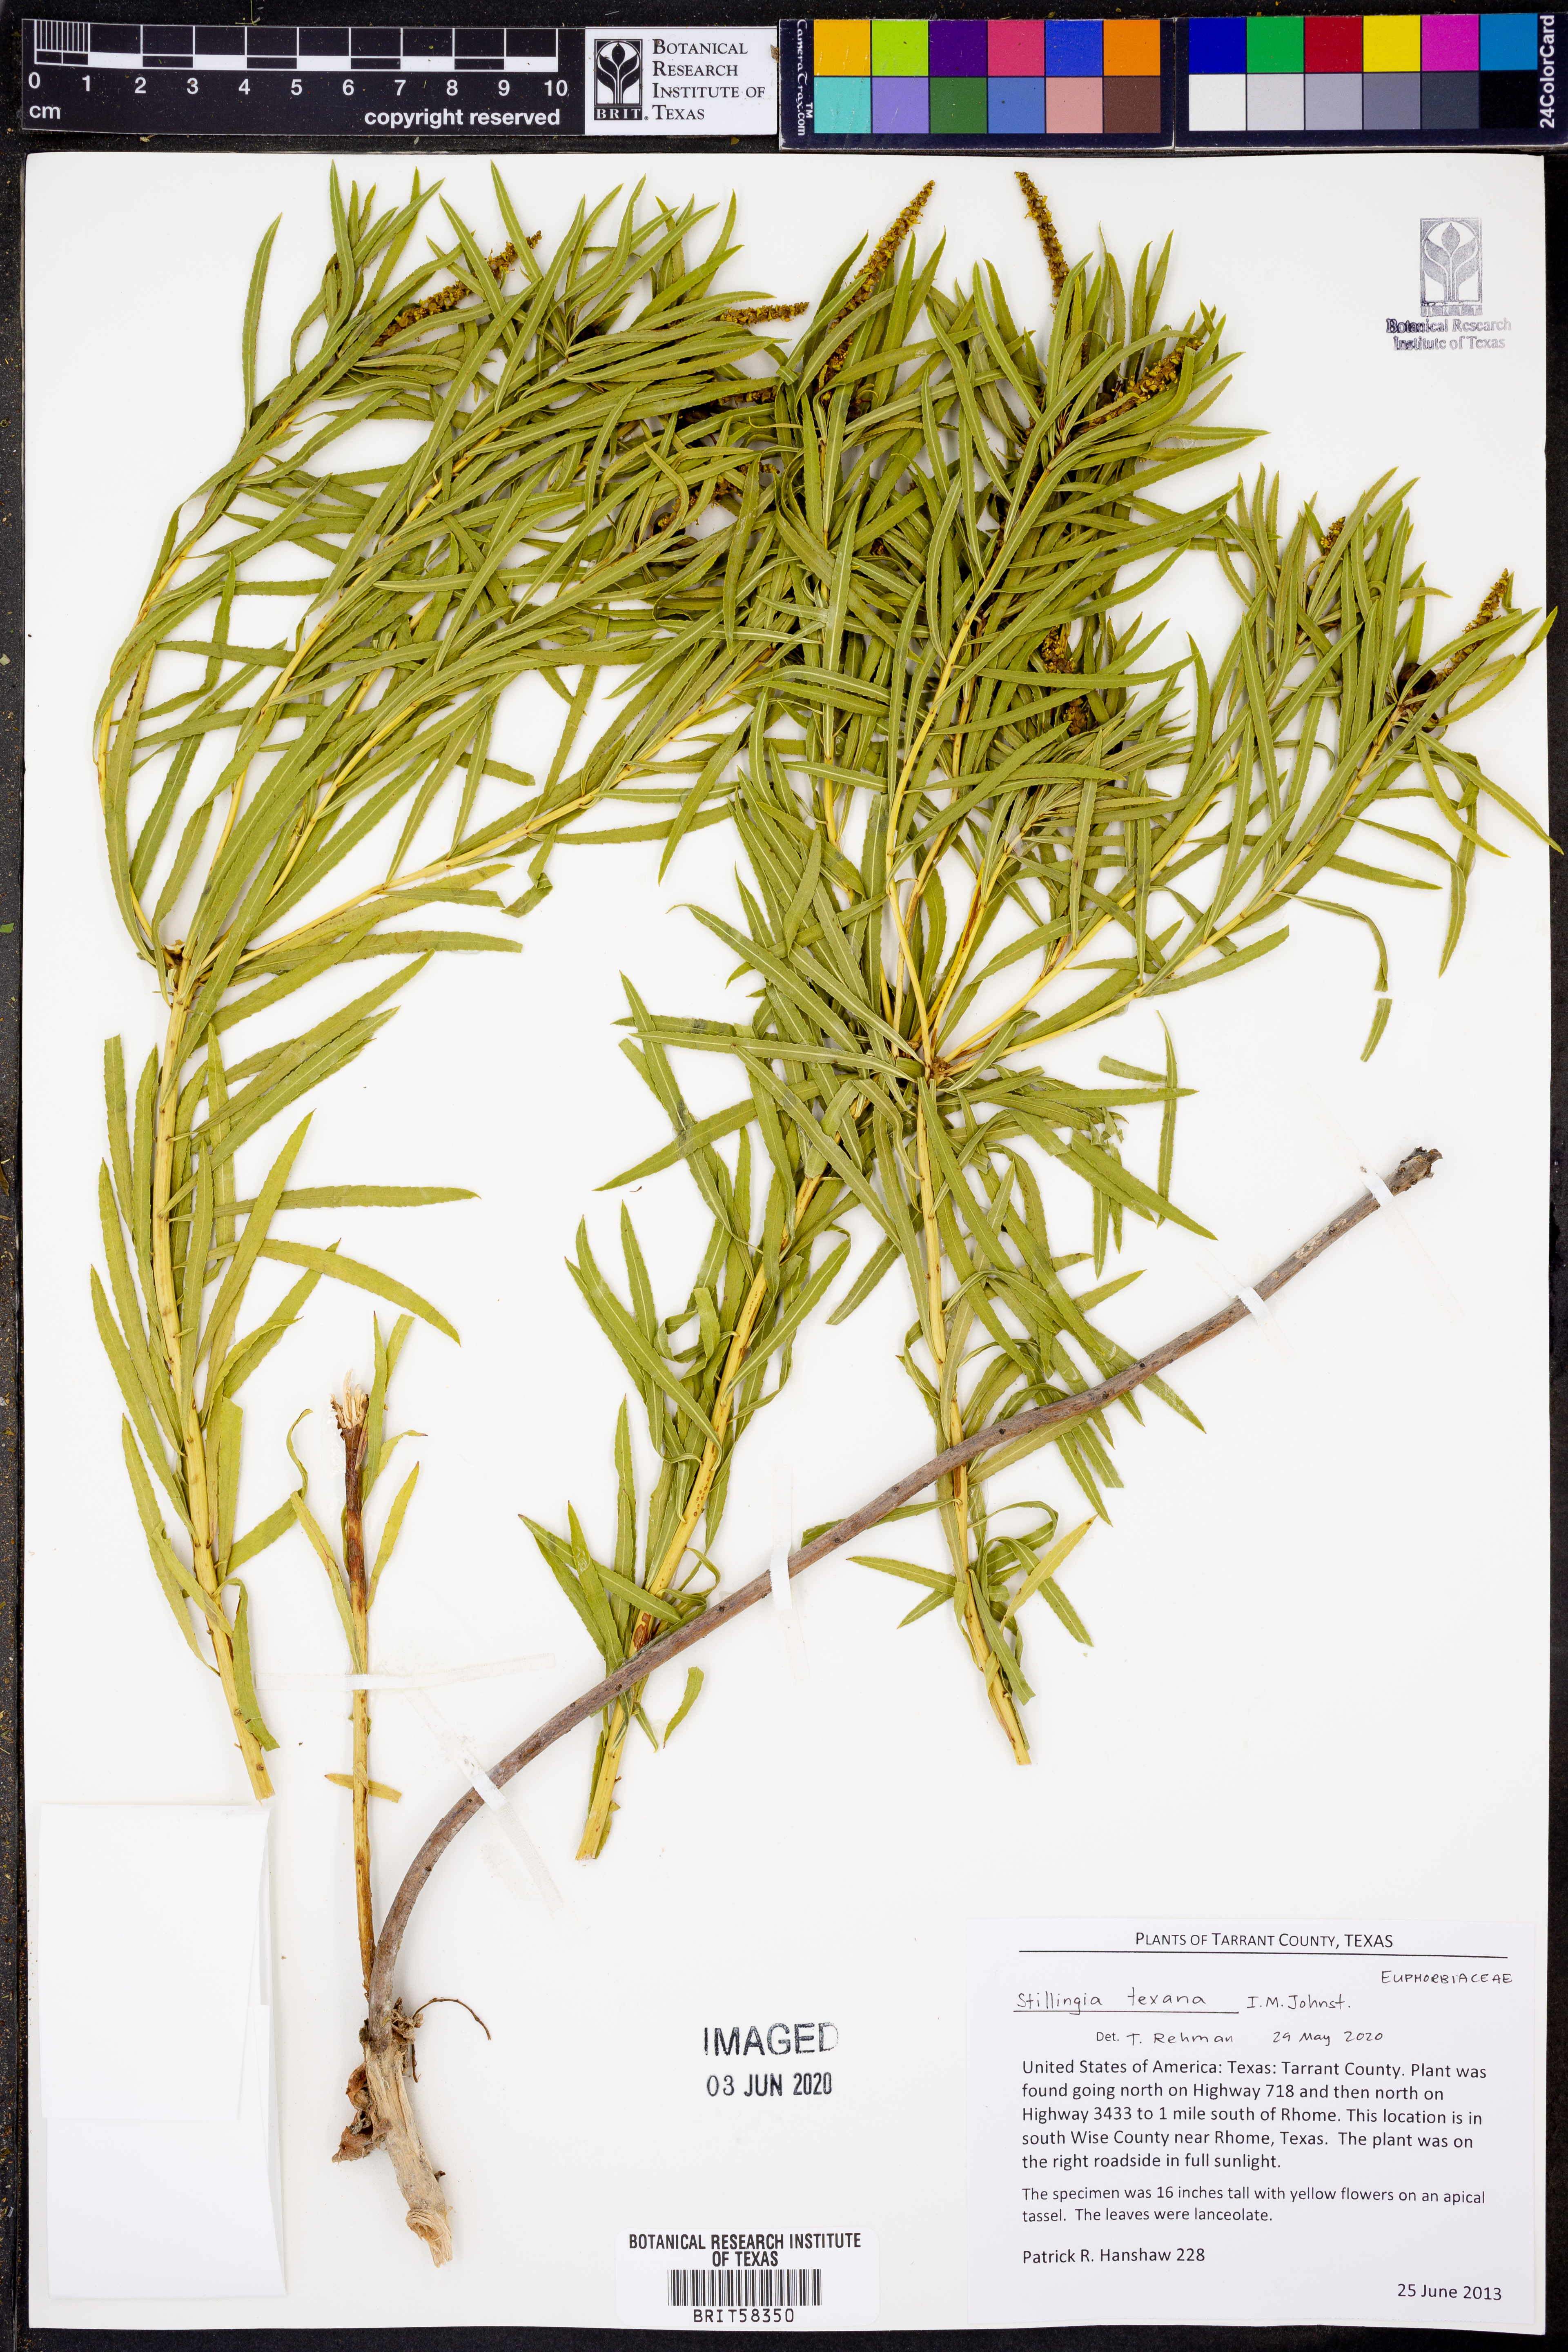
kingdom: Plantae
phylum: Tracheophyta
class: Magnoliopsida
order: Malpighiales
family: Euphorbiaceae
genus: Stillingia
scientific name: Stillingia texana
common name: Texas stillingia
